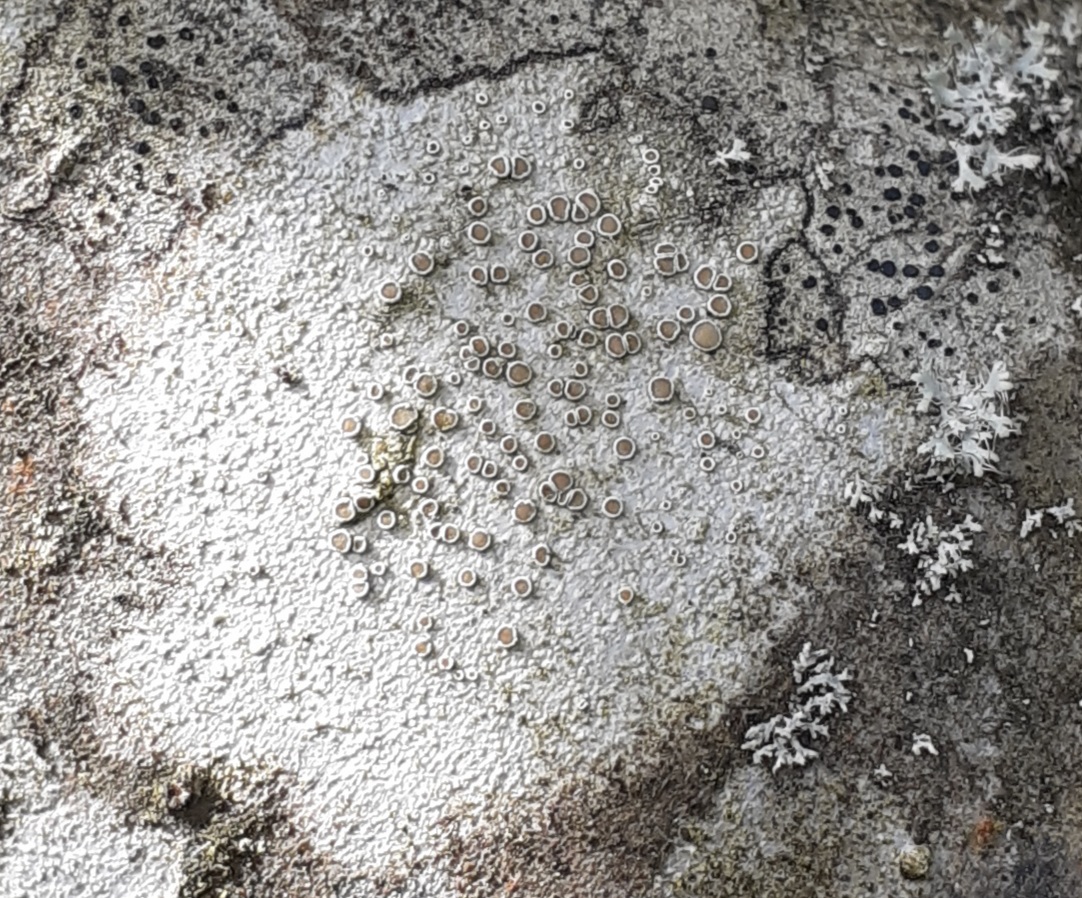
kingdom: Fungi
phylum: Ascomycota
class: Lecanoromycetes
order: Lecanorales
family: Lecanoraceae
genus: Lecanora
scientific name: Lecanora chlarotera
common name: brun kantskivelav
